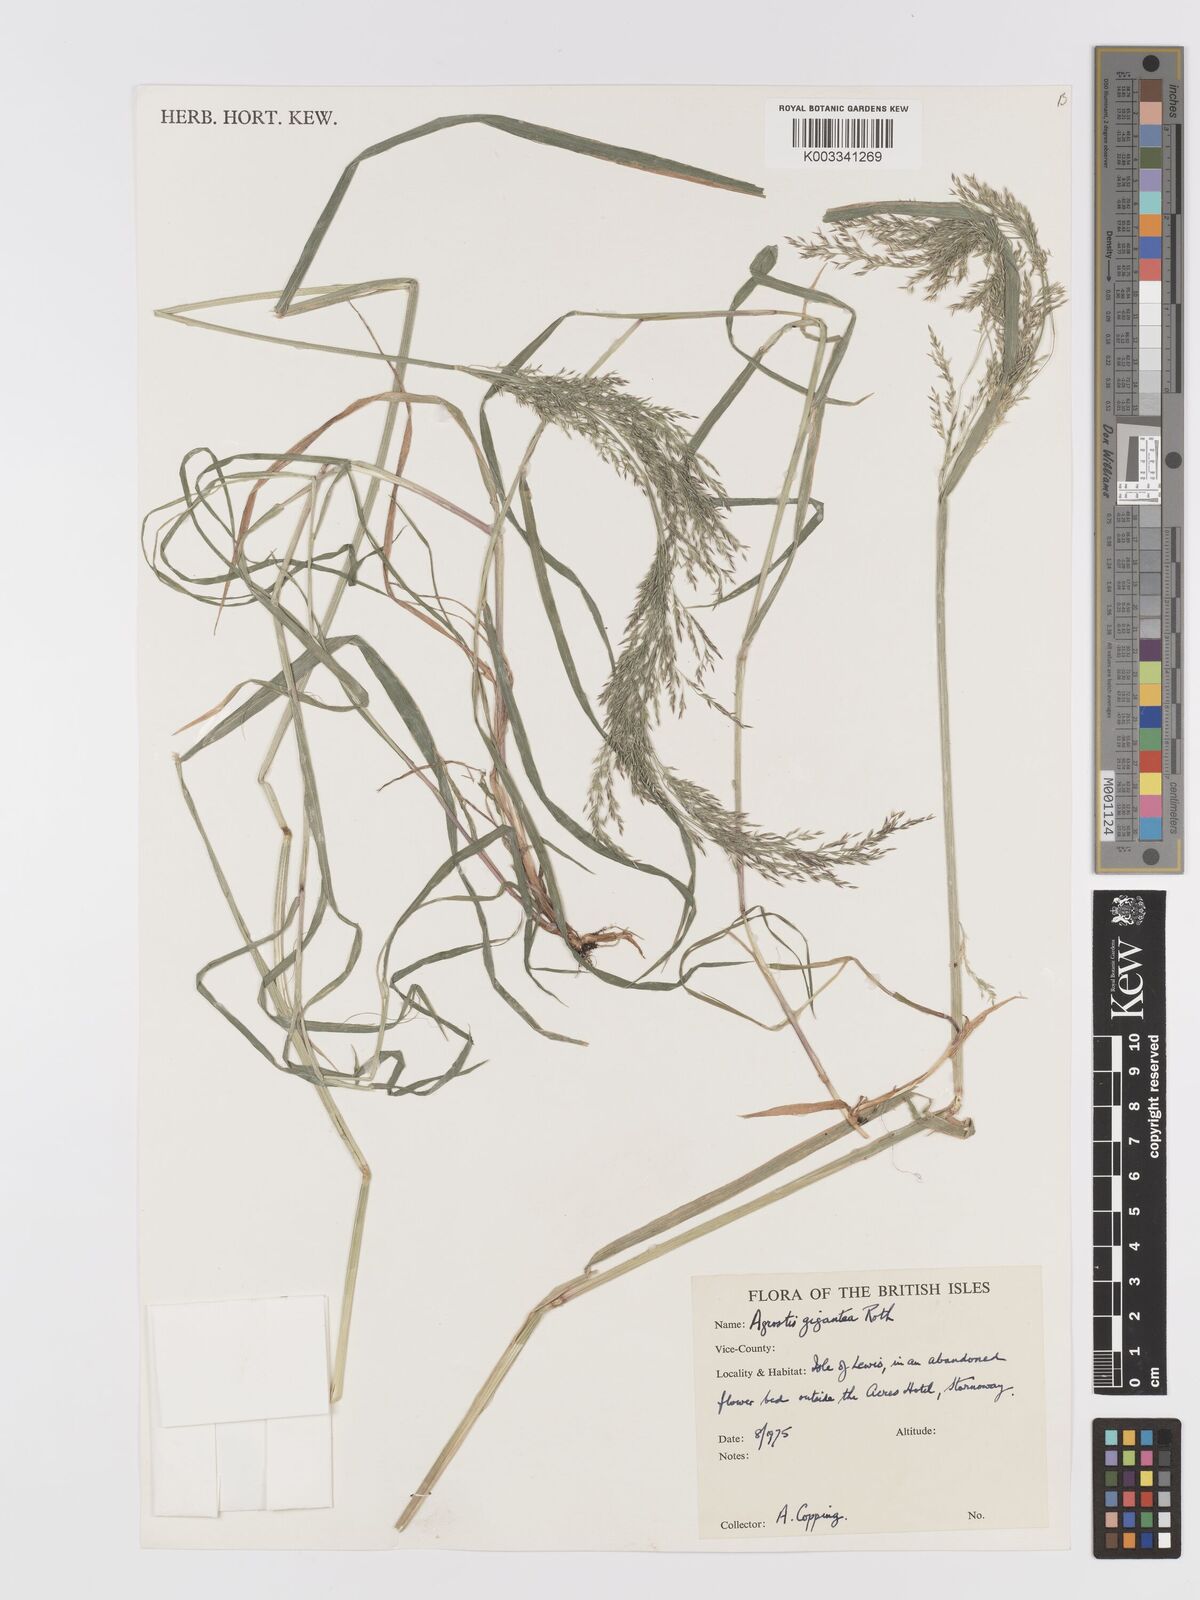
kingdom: Plantae
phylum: Tracheophyta
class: Liliopsida
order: Poales
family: Poaceae
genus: Agrostis
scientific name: Agrostis gigantea
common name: Black bent
